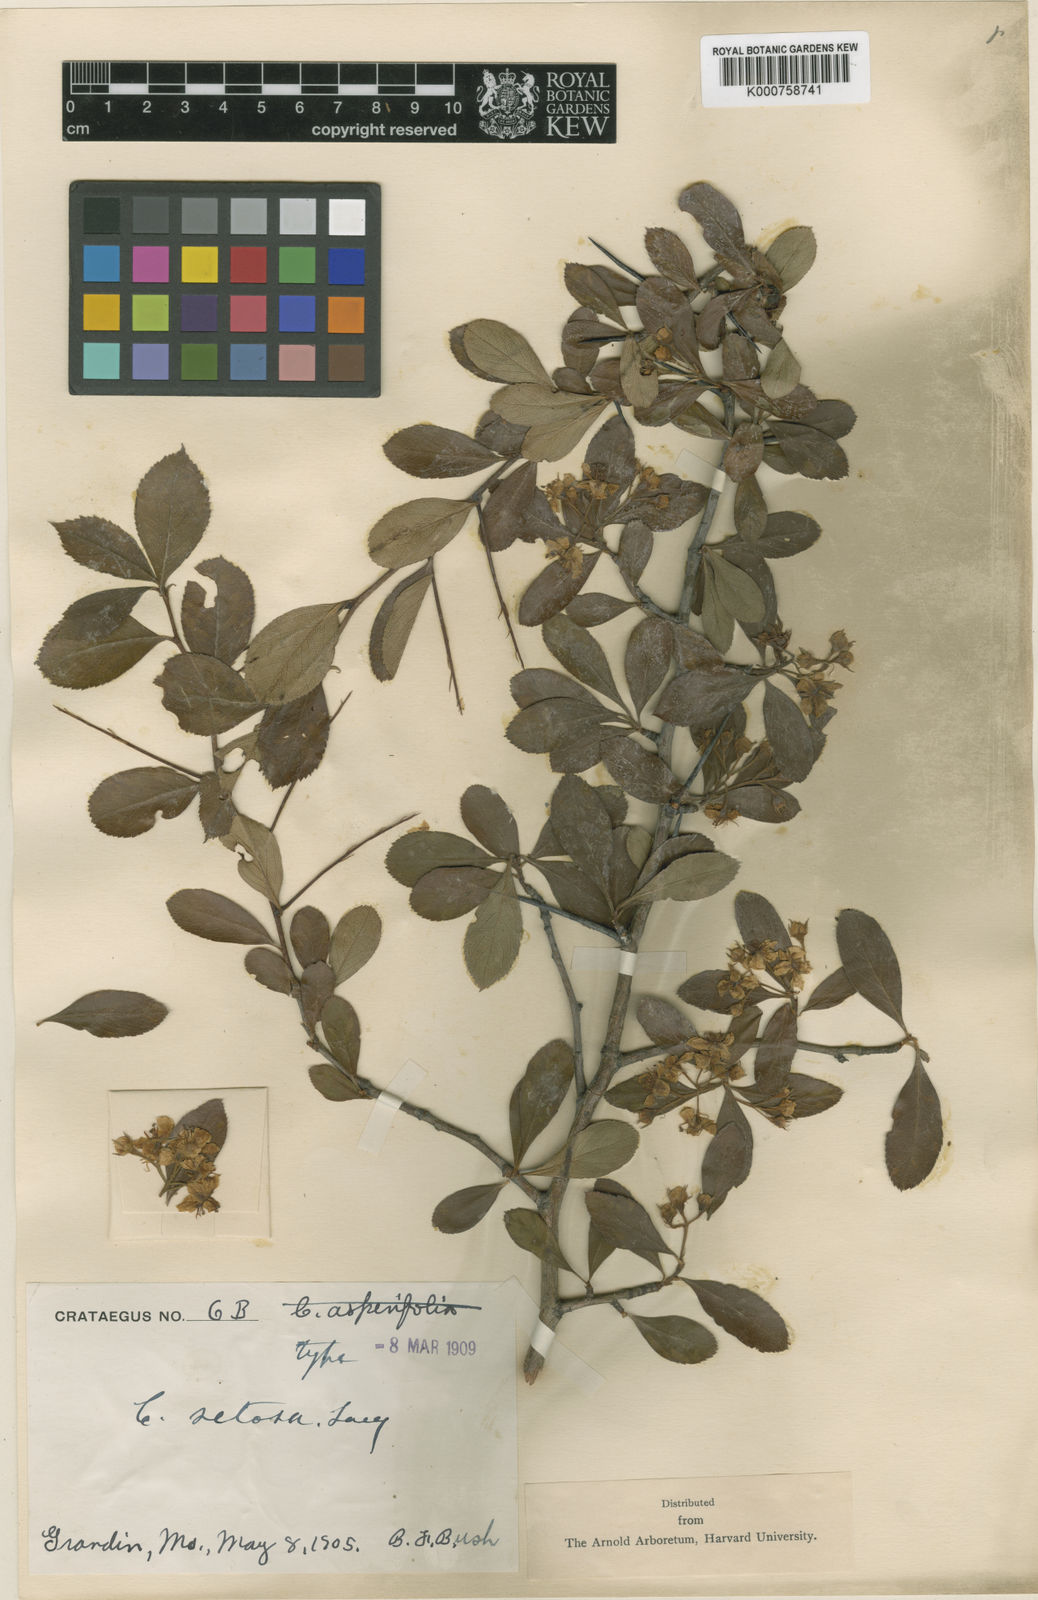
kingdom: Plantae
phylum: Tracheophyta
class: Magnoliopsida
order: Rosales
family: Rosaceae
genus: Crataegus
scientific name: Crataegus crus-galli
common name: Cockspurthorn
